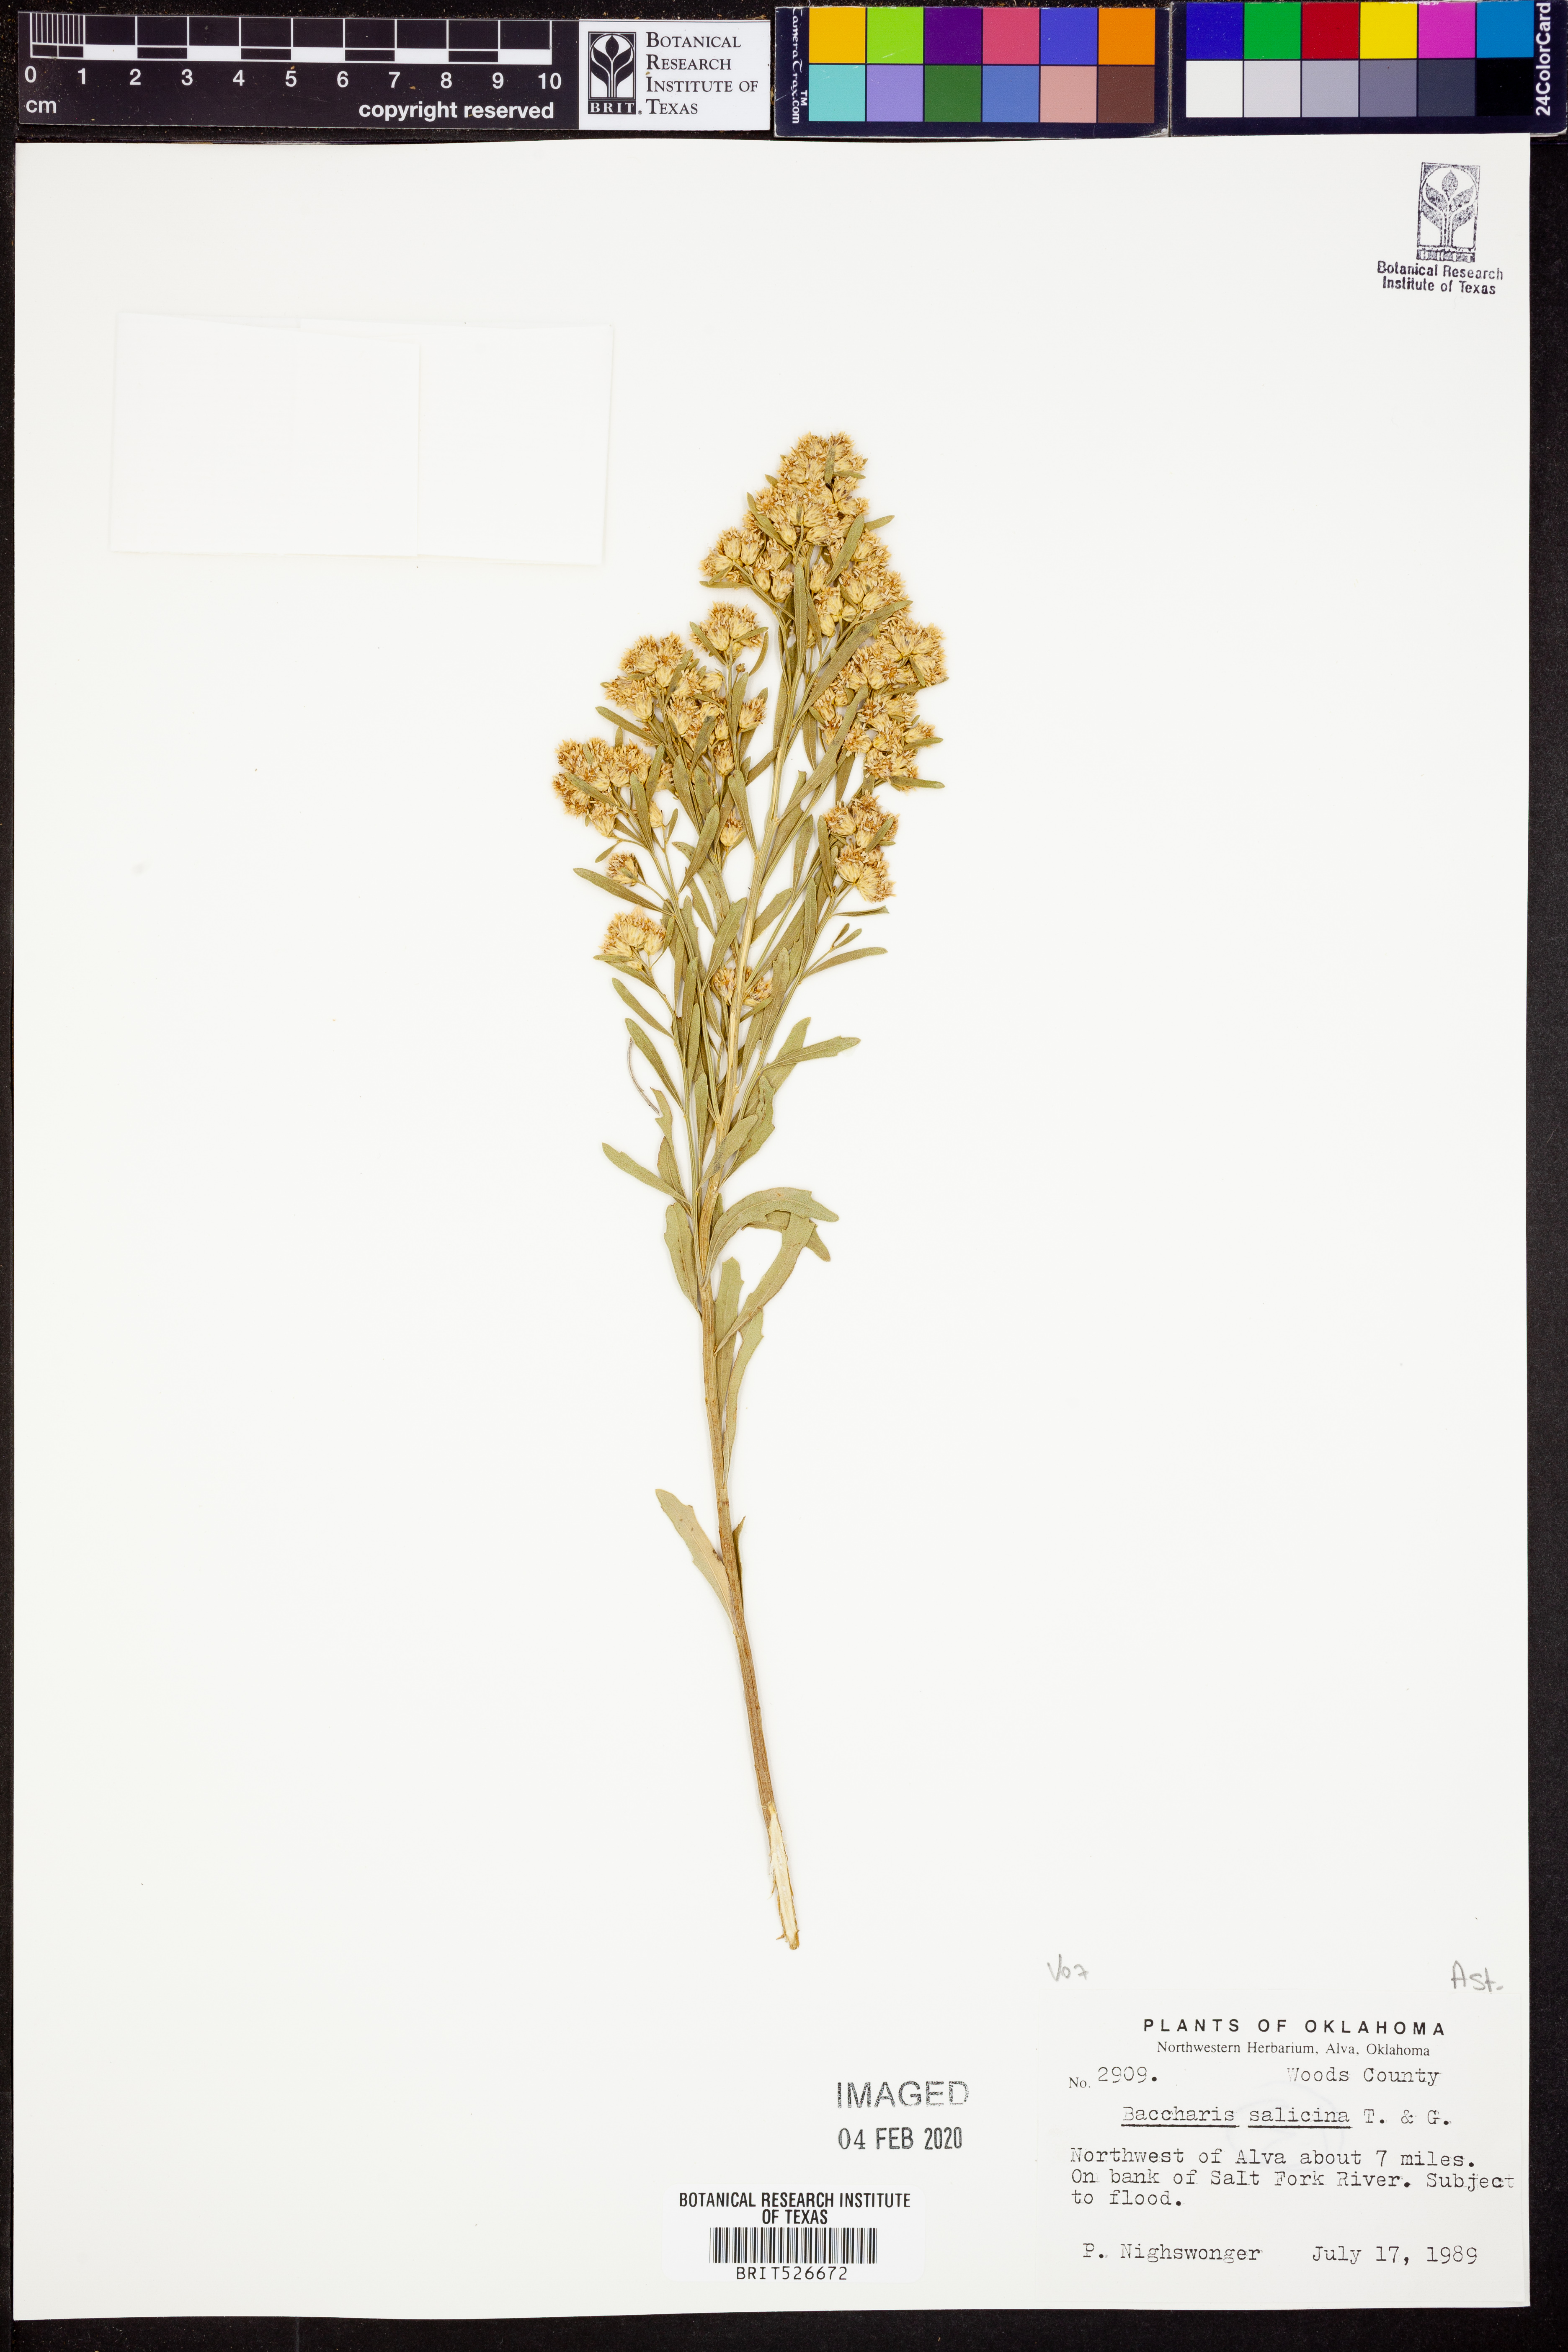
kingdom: Plantae
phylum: Tracheophyta
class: Magnoliopsida
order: Asterales
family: Asteraceae
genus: Baccharis
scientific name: Baccharis salicina
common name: Willow baccharis
